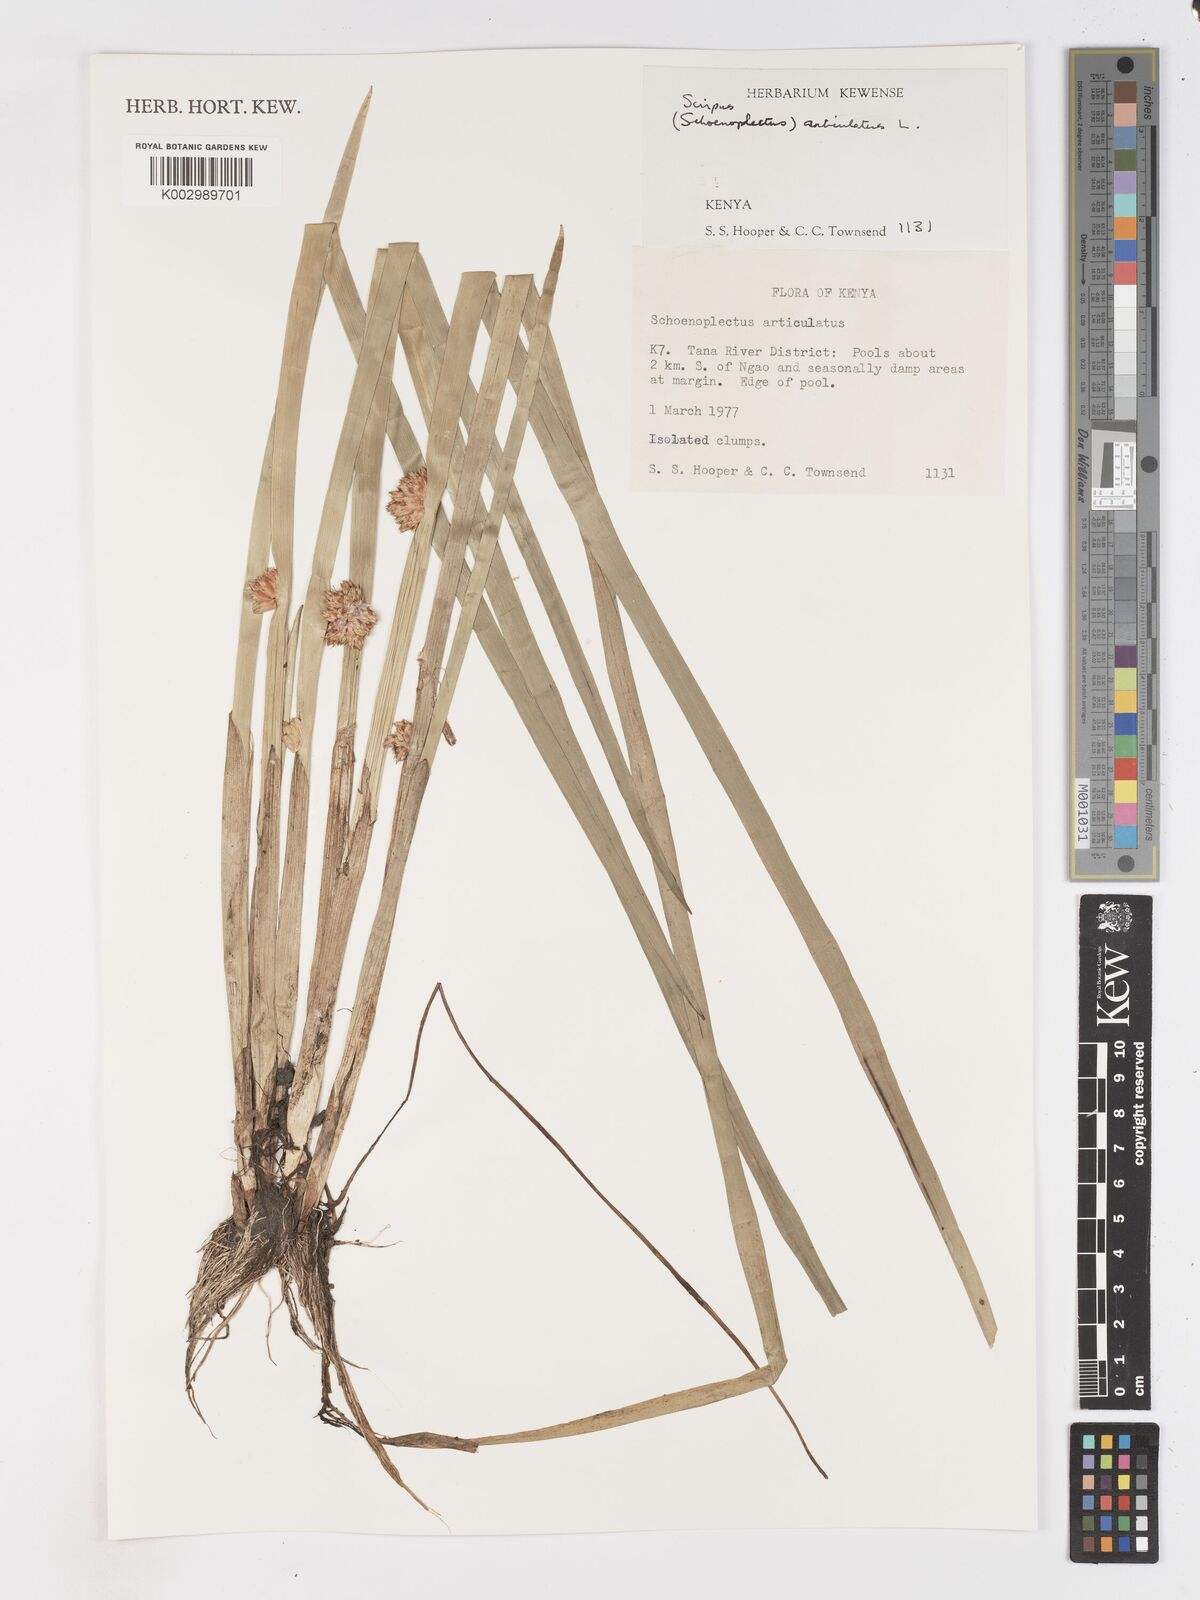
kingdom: Plantae
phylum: Tracheophyta
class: Liliopsida
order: Poales
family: Cyperaceae
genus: Schoenoplectiella
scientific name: Schoenoplectiella articulata
